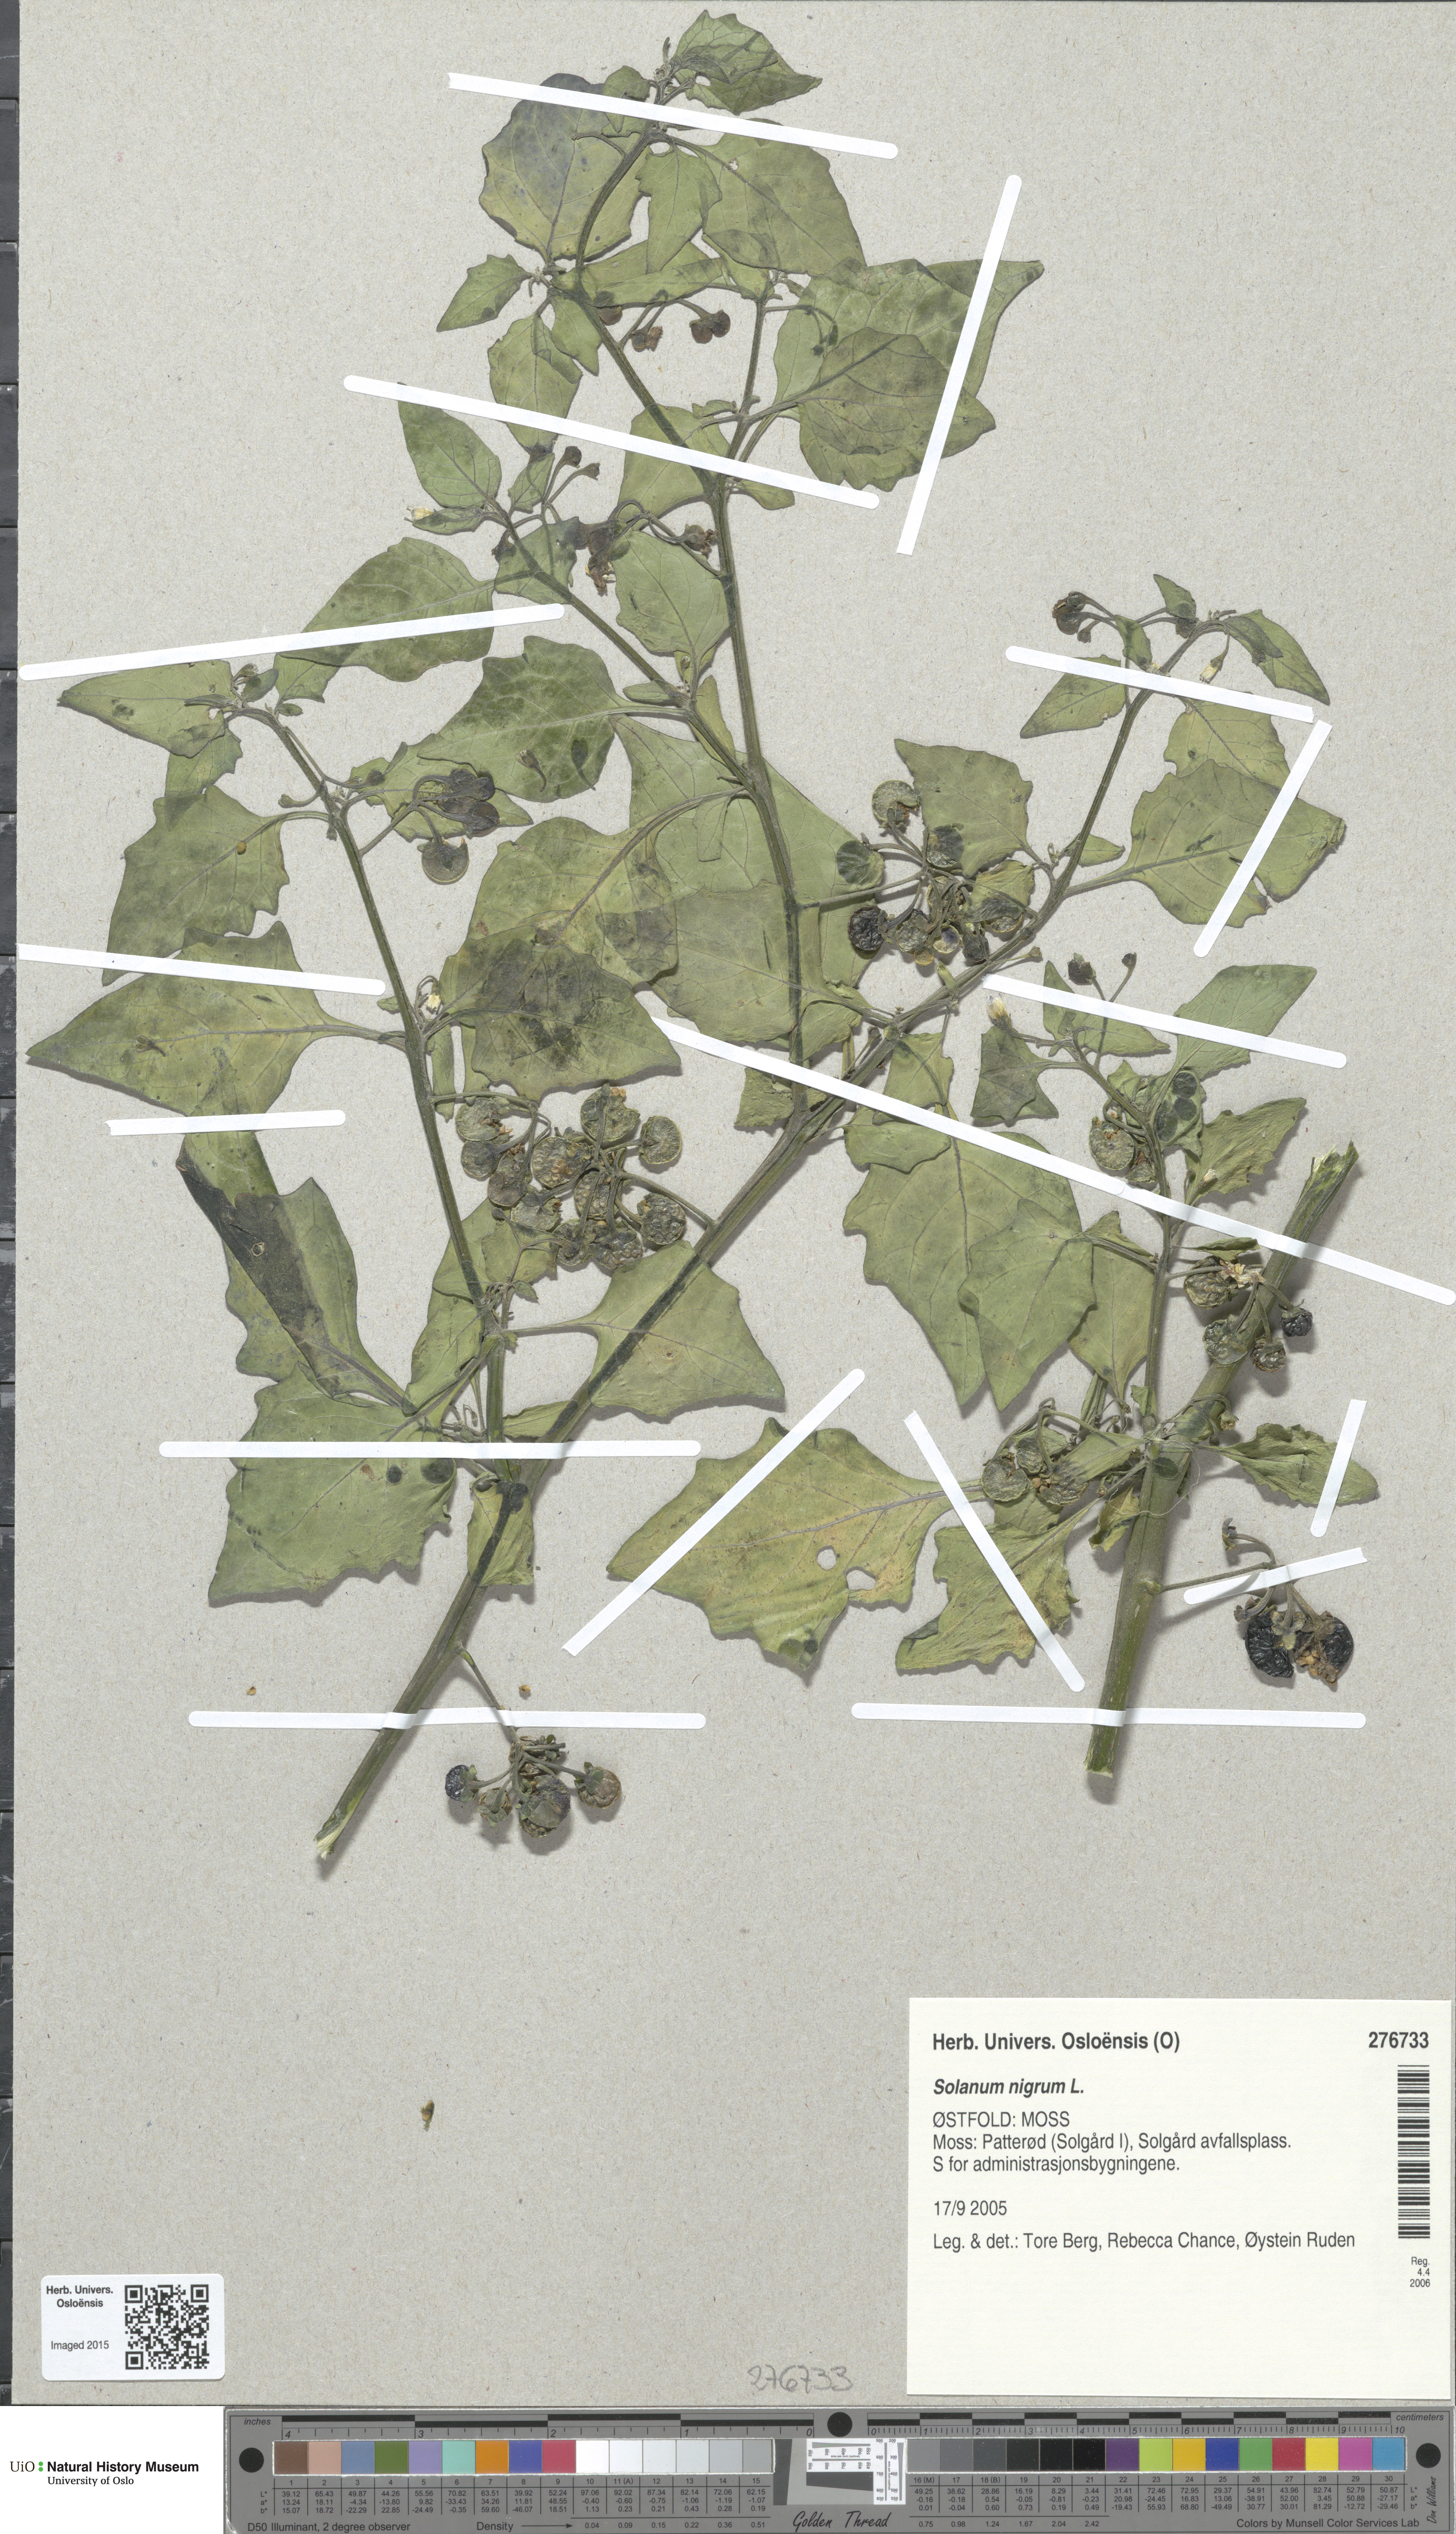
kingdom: Plantae
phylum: Tracheophyta
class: Magnoliopsida
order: Solanales
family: Solanaceae
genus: Solanum
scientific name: Solanum nigrum
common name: Black nightshade
